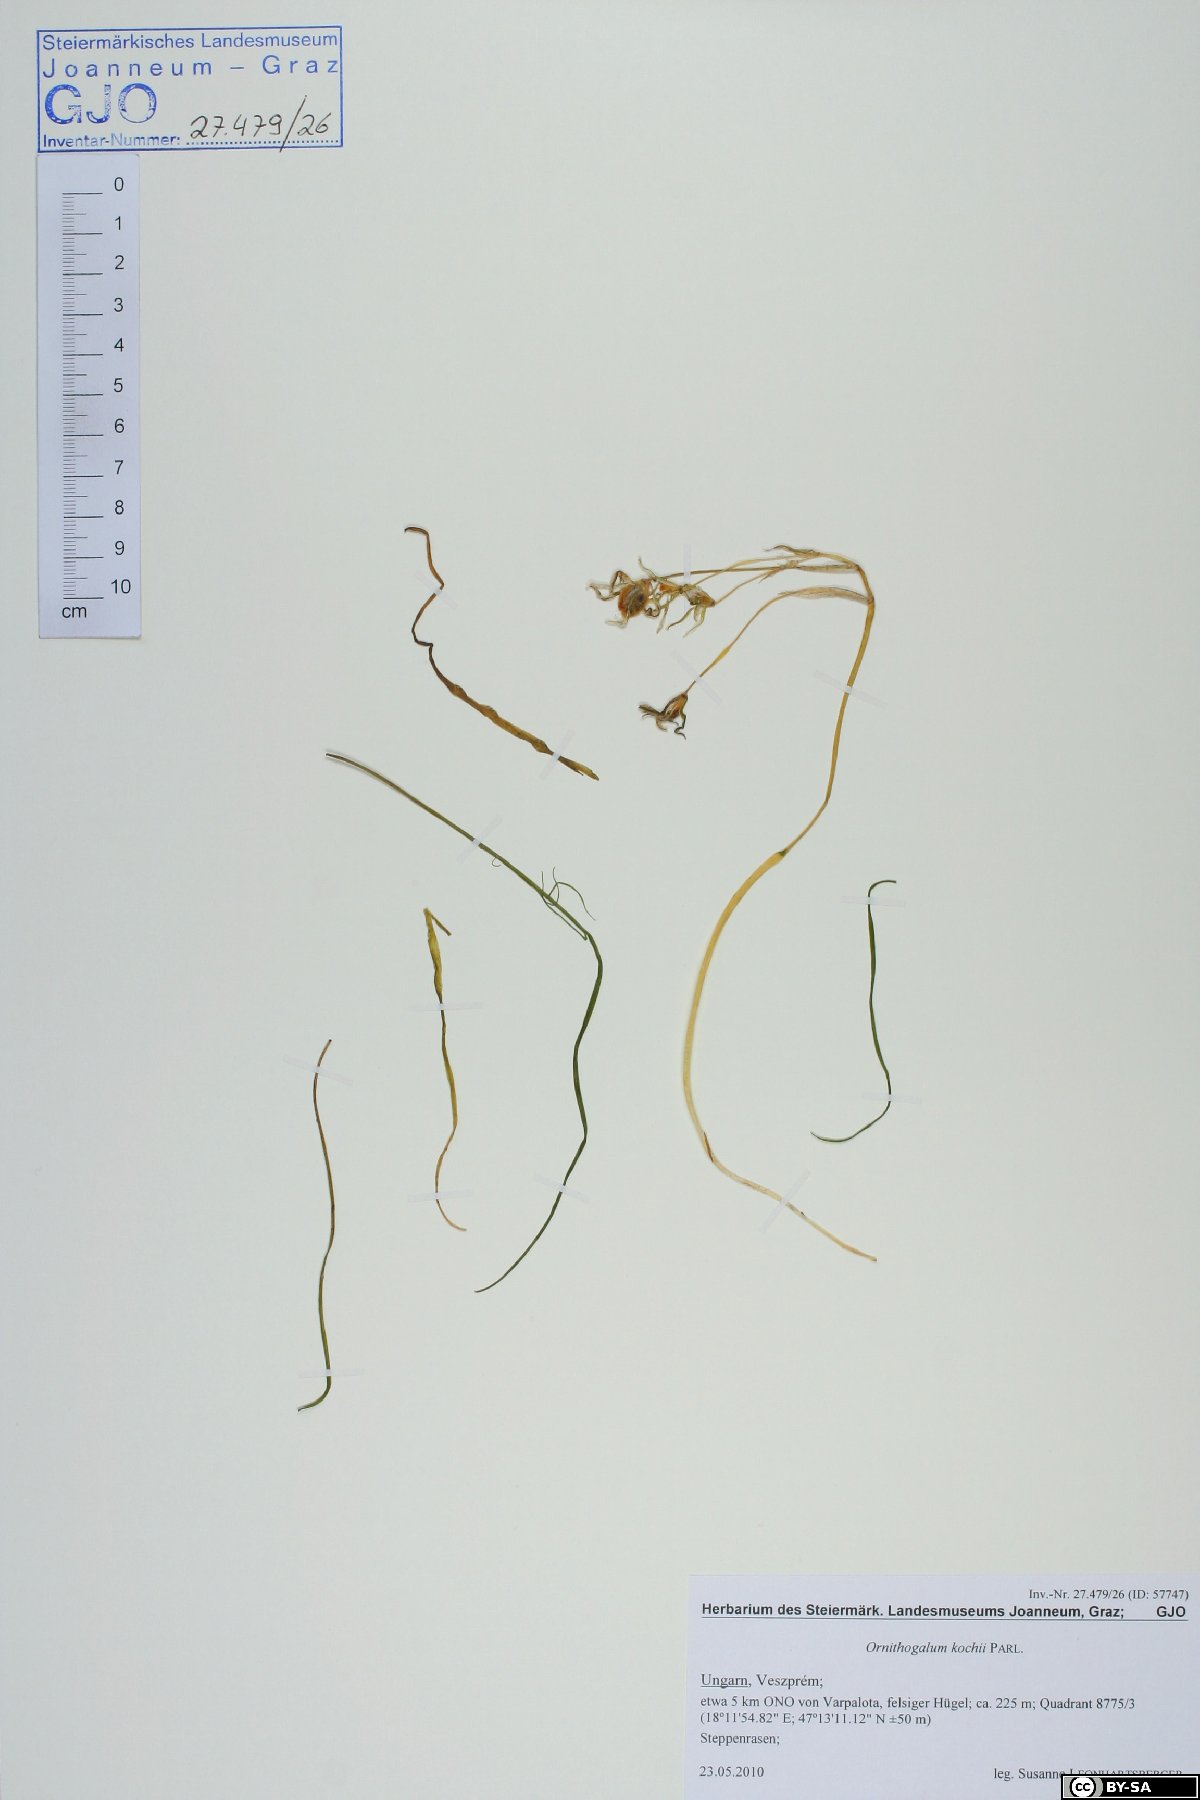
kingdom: Plantae
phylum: Tracheophyta
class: Liliopsida
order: Asparagales
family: Asparagaceae
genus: Ornithogalum
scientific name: Ornithogalum orthophyllum
